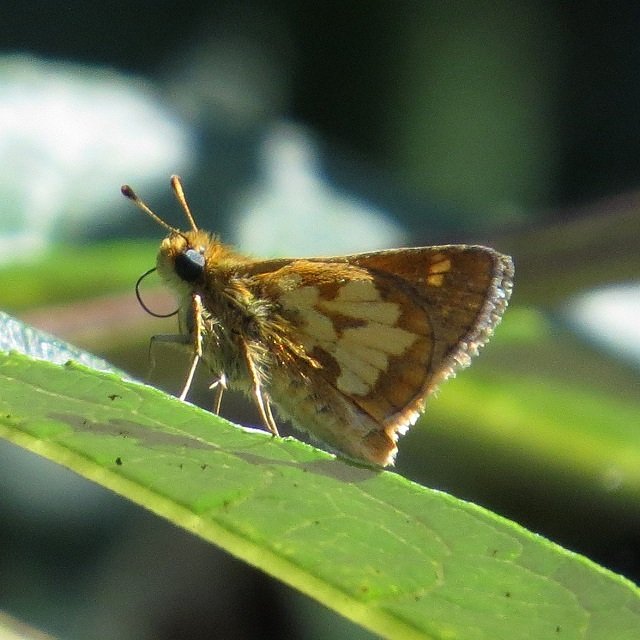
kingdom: Animalia
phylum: Arthropoda
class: Insecta
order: Lepidoptera
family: Hesperiidae
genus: Polites
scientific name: Polites coras
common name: Peck's Skipper
